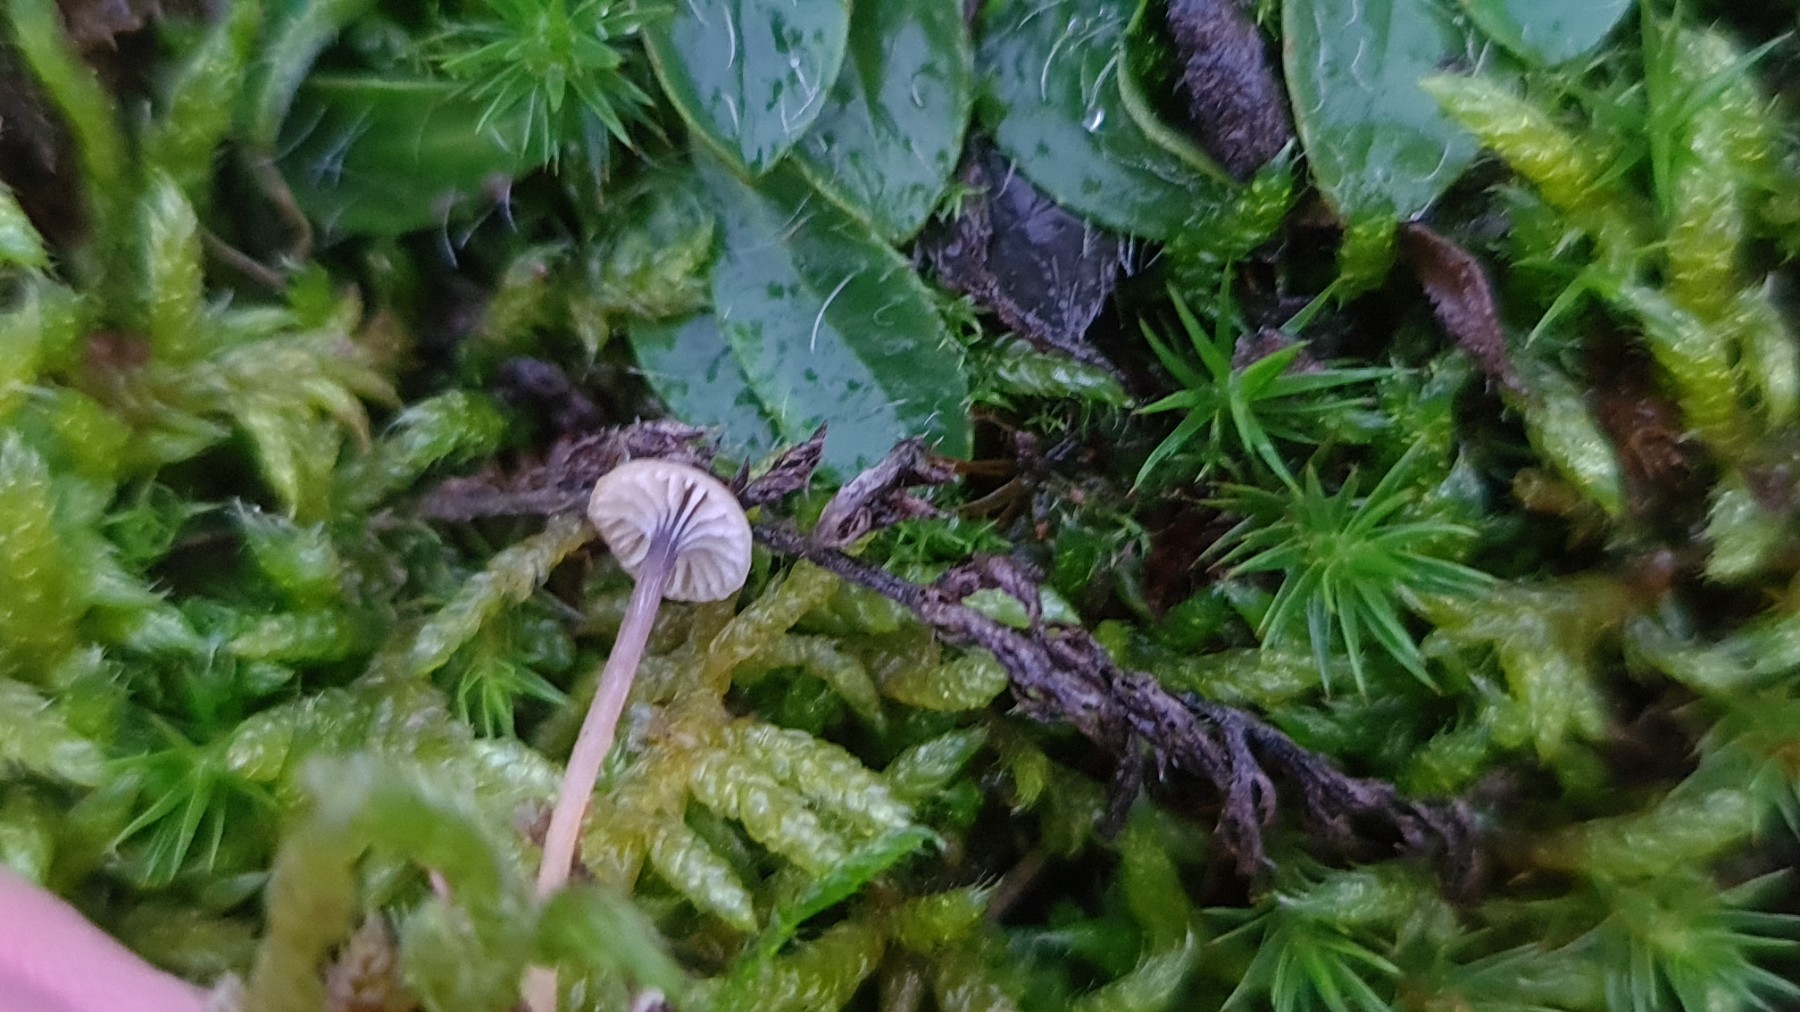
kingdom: Fungi
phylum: Basidiomycota
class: Agaricomycetes
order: Hymenochaetales
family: Rickenellaceae
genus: Rickenella
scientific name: Rickenella swartzii
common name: finstokket mosnavlehat
